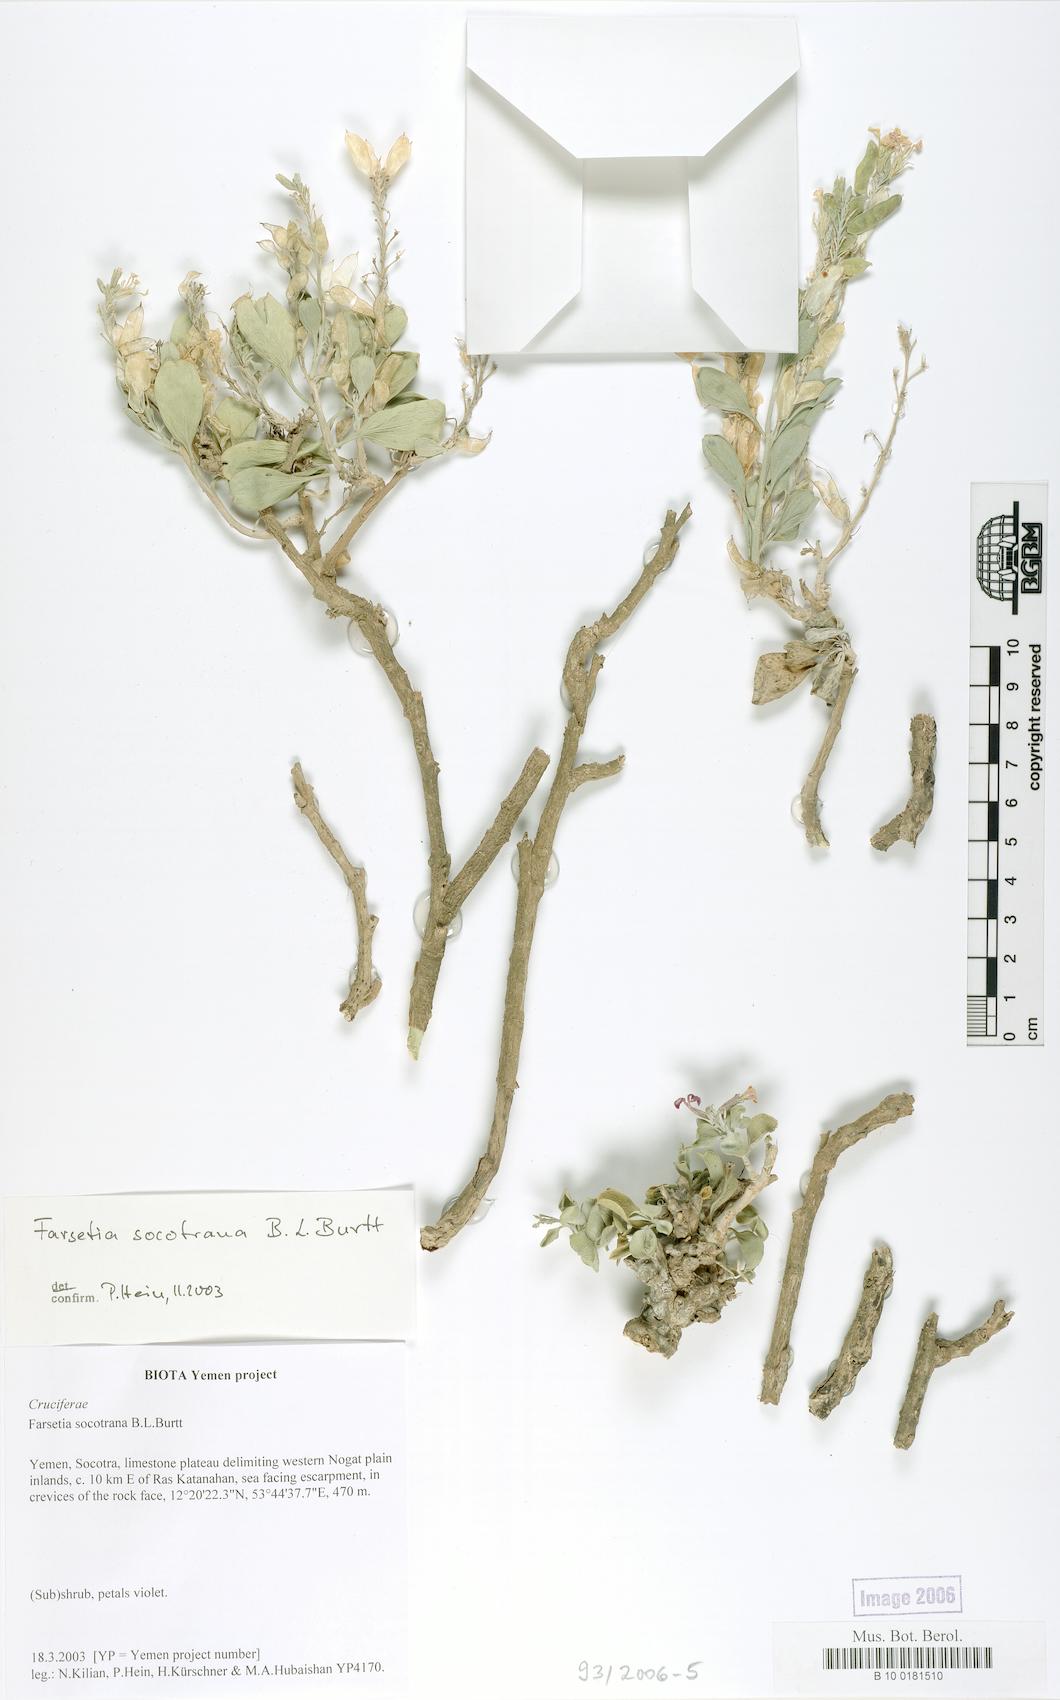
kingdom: Plantae
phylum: Tracheophyta
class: Magnoliopsida
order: Brassicales
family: Brassicaceae
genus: Farsetia
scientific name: Farsetia socotrana
